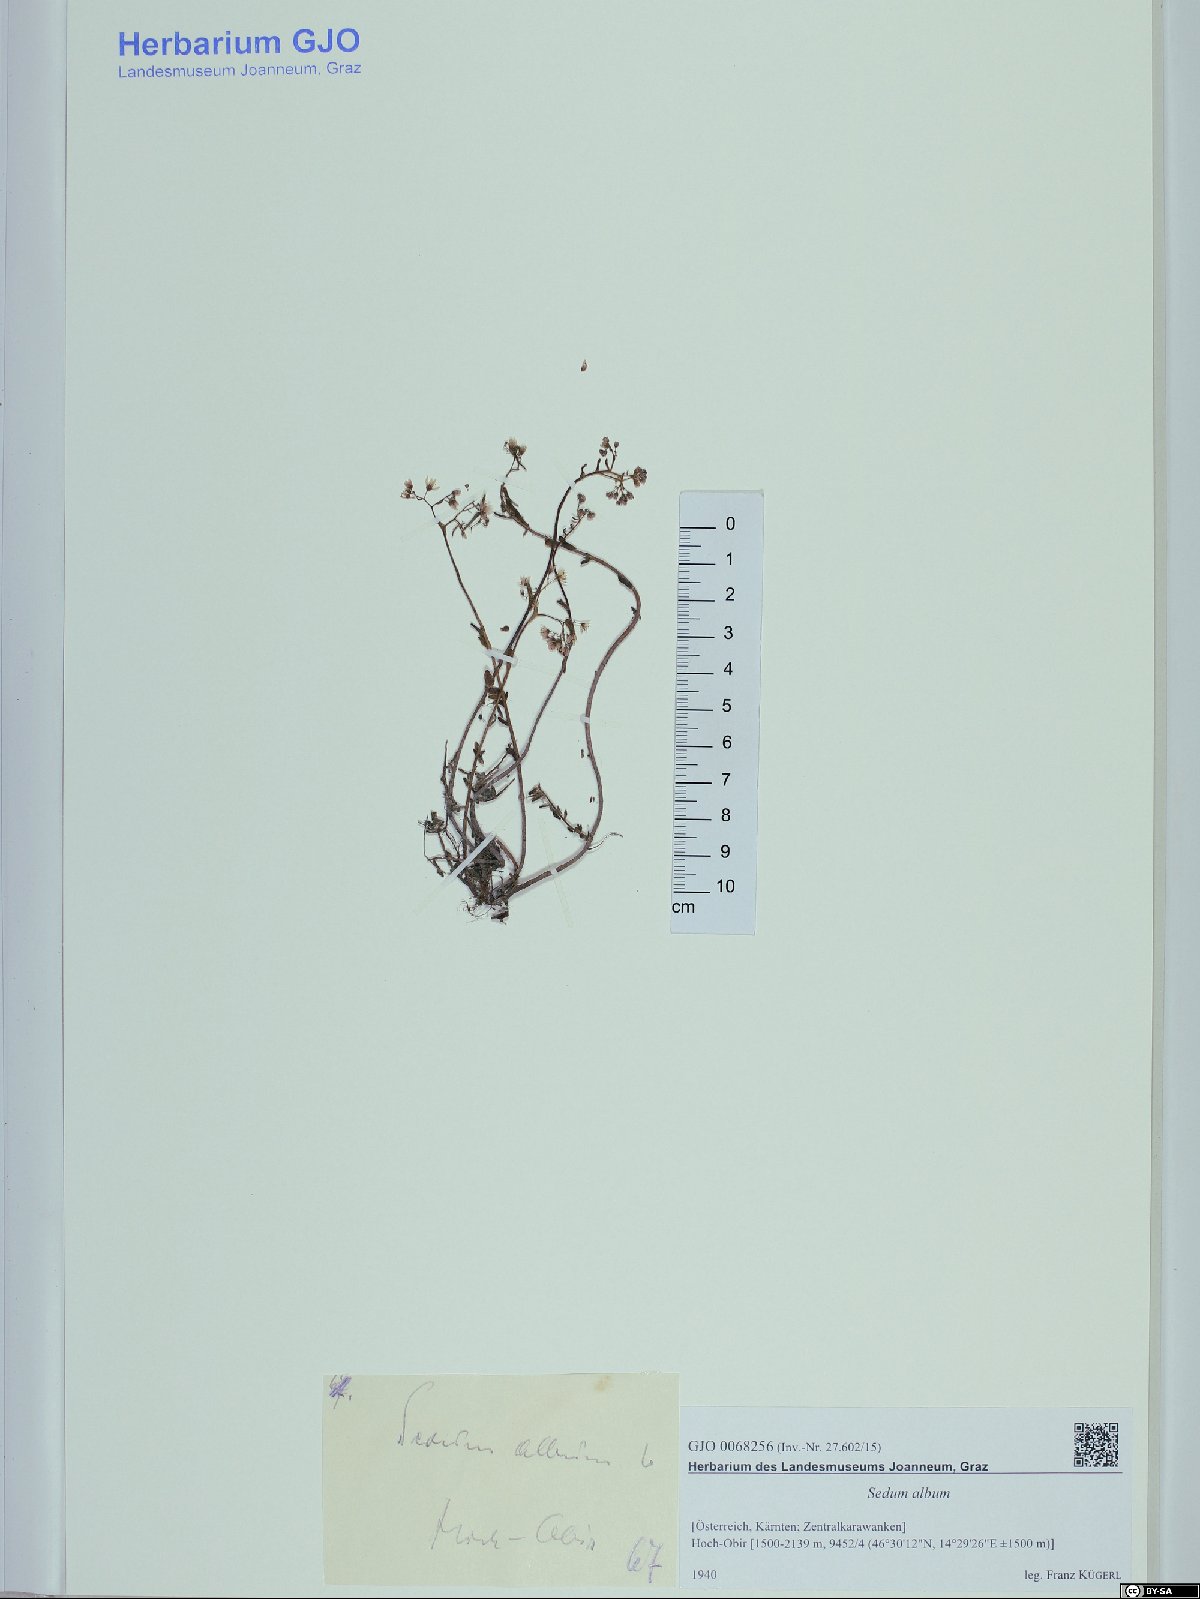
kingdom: Plantae
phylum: Tracheophyta
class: Magnoliopsida
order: Saxifragales
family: Crassulaceae
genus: Sedum
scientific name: Sedum album
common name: White stonecrop
